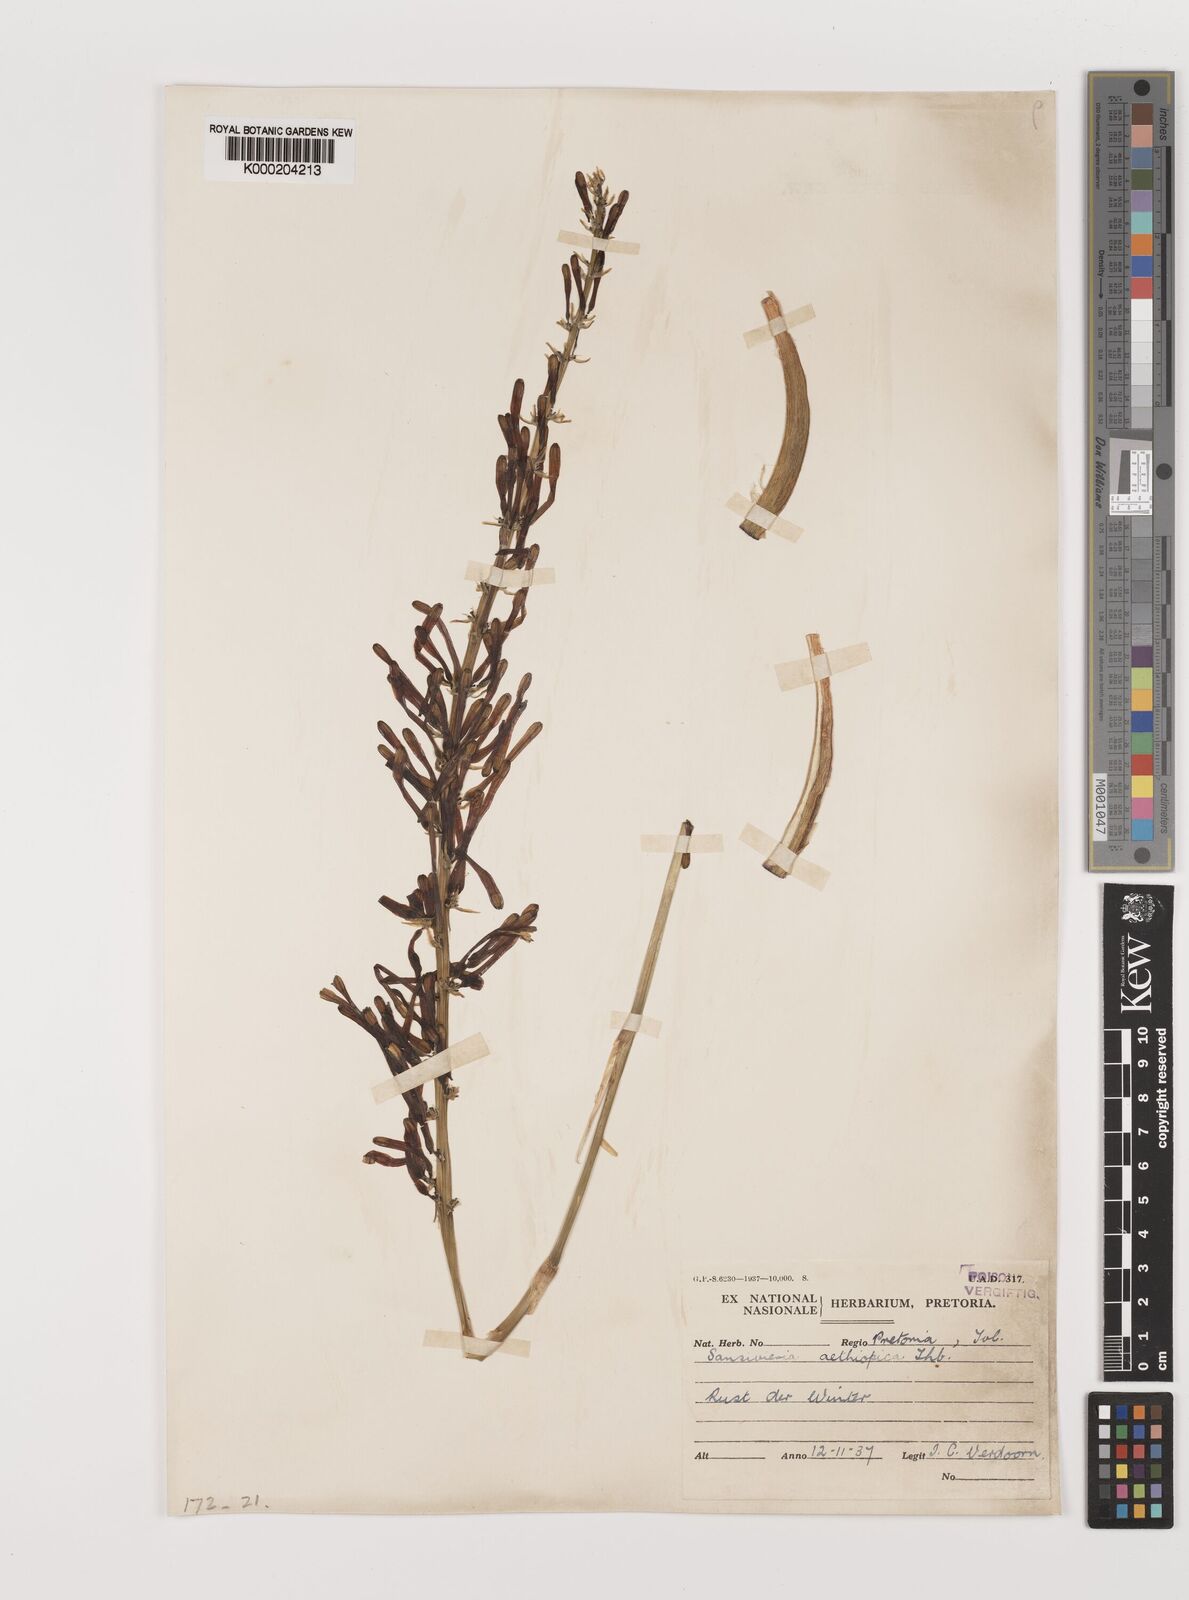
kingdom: Plantae
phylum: Tracheophyta
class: Liliopsida
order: Asparagales
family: Asparagaceae
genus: Dracaena
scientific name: Dracaena aethiopica
